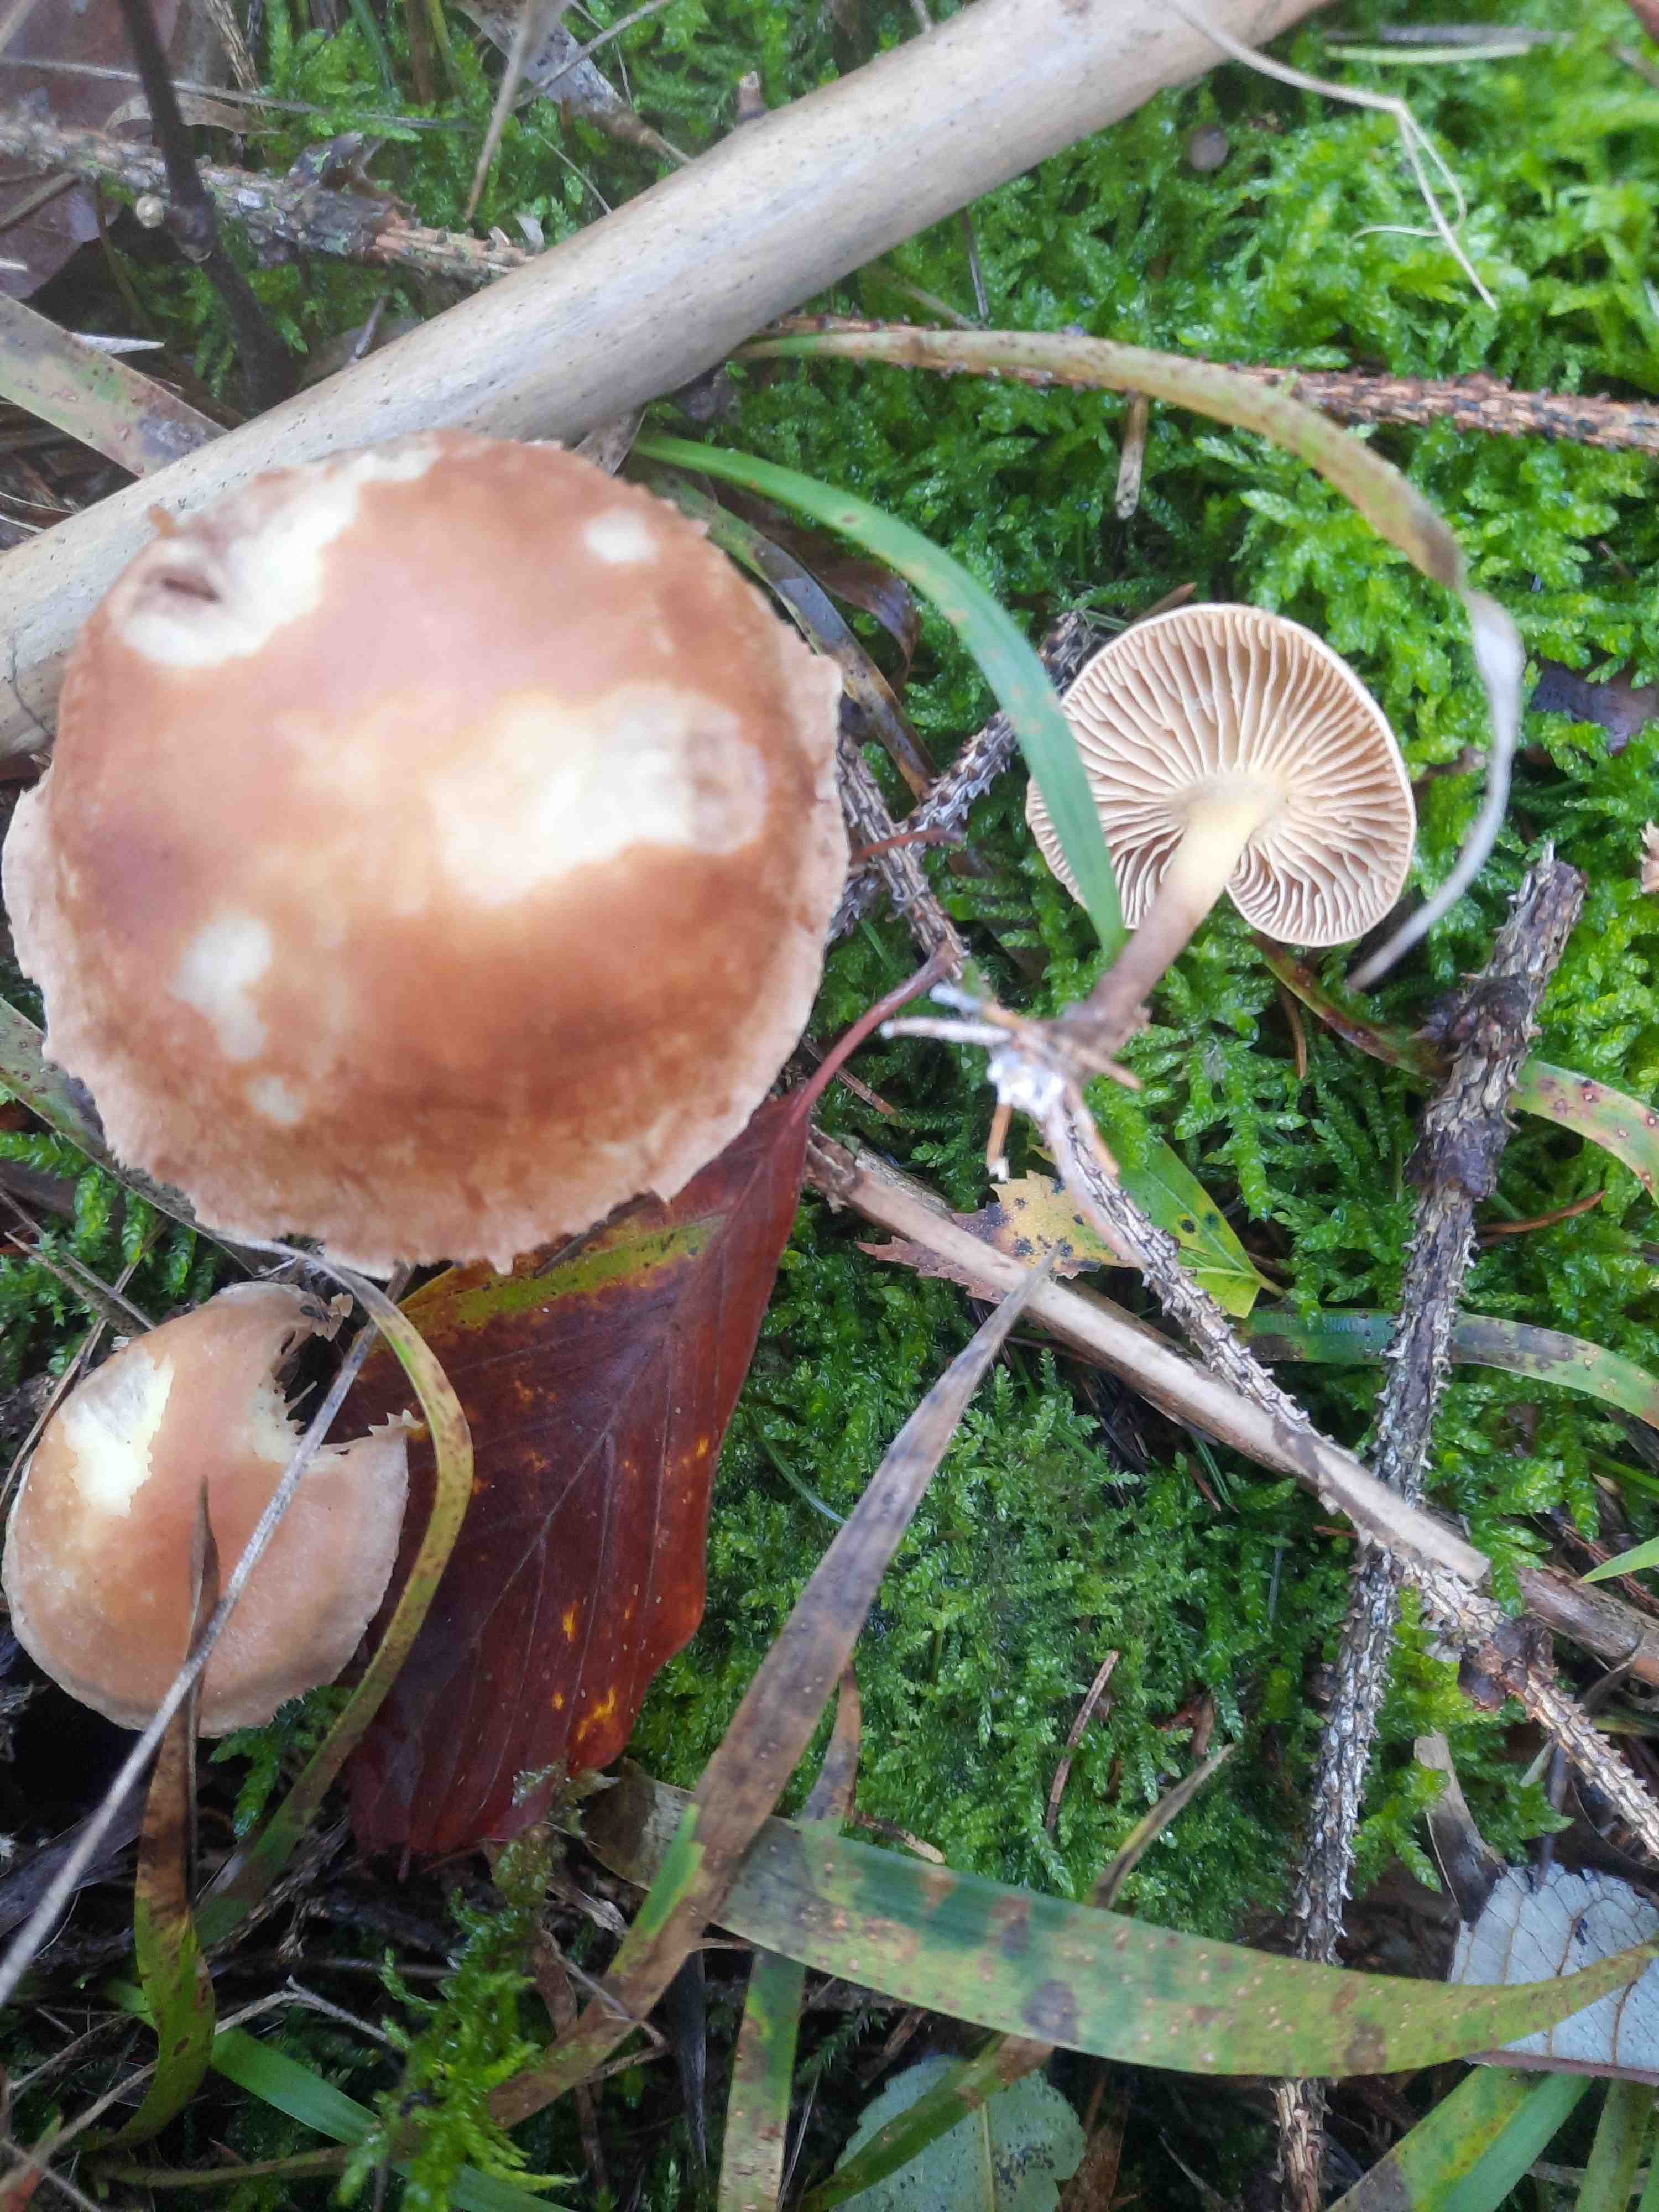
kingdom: Fungi
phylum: Basidiomycota
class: Agaricomycetes
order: Agaricales
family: Omphalotaceae
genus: Collybiopsis
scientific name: Collybiopsis peronata
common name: bestøvlet fladhat
